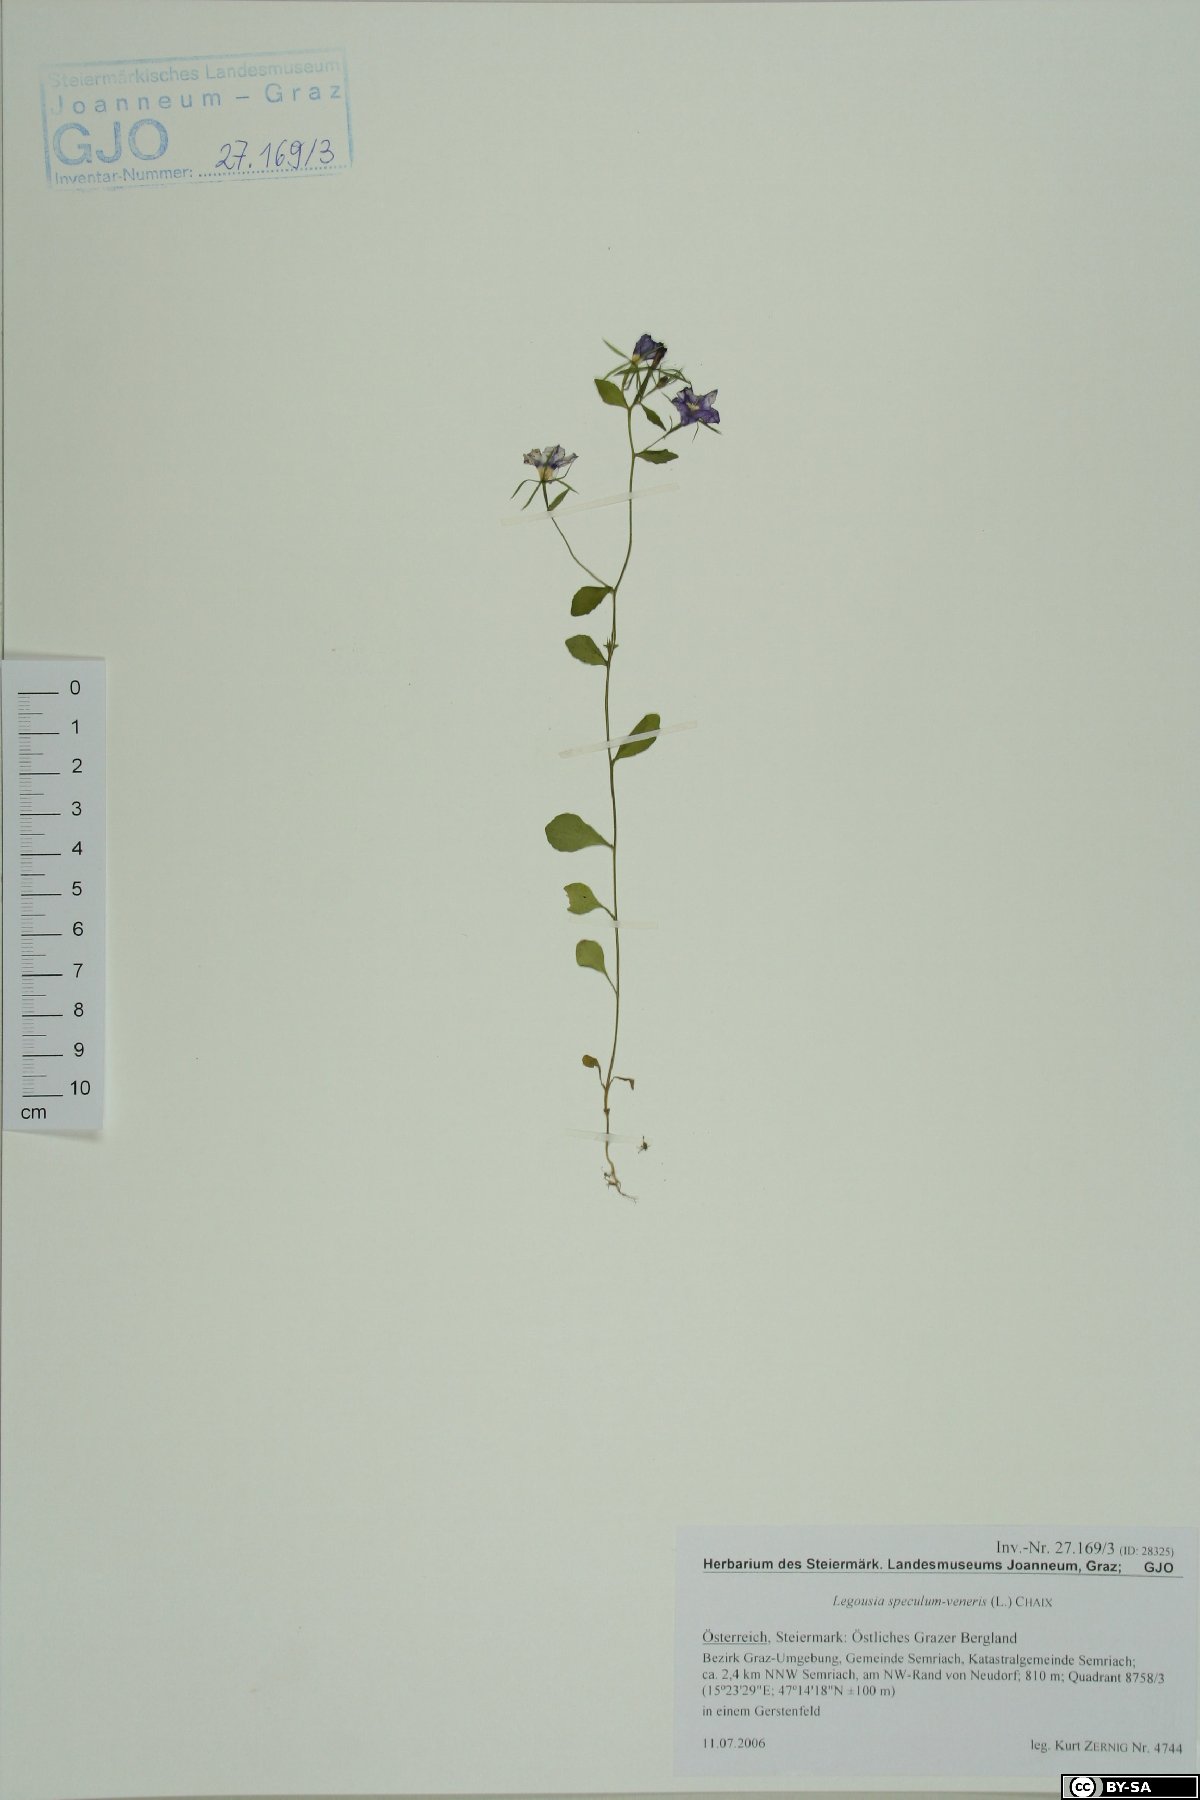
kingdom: Plantae
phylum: Tracheophyta
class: Magnoliopsida
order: Asterales
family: Campanulaceae
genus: Legousia
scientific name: Legousia speculum-veneris
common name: Large venus's-looking-glass
